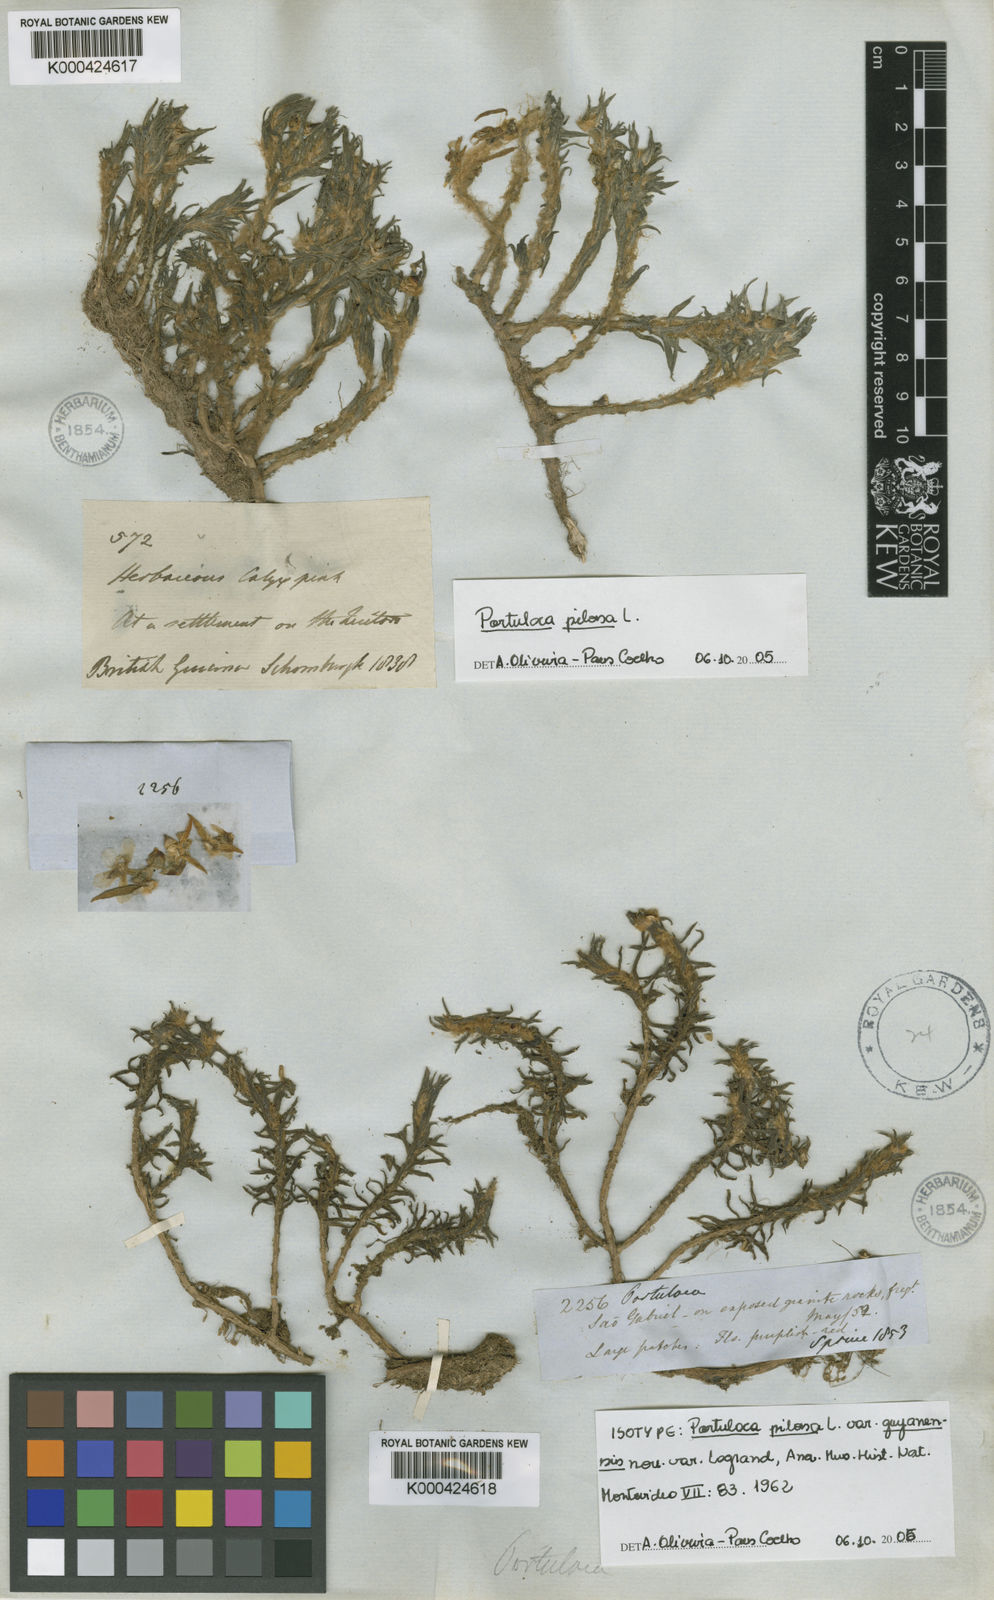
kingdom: Plantae
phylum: Tracheophyta
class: Magnoliopsida
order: Caryophyllales
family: Portulacaceae
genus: Portulaca
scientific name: Portulaca pilosa
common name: Kiss me quick
